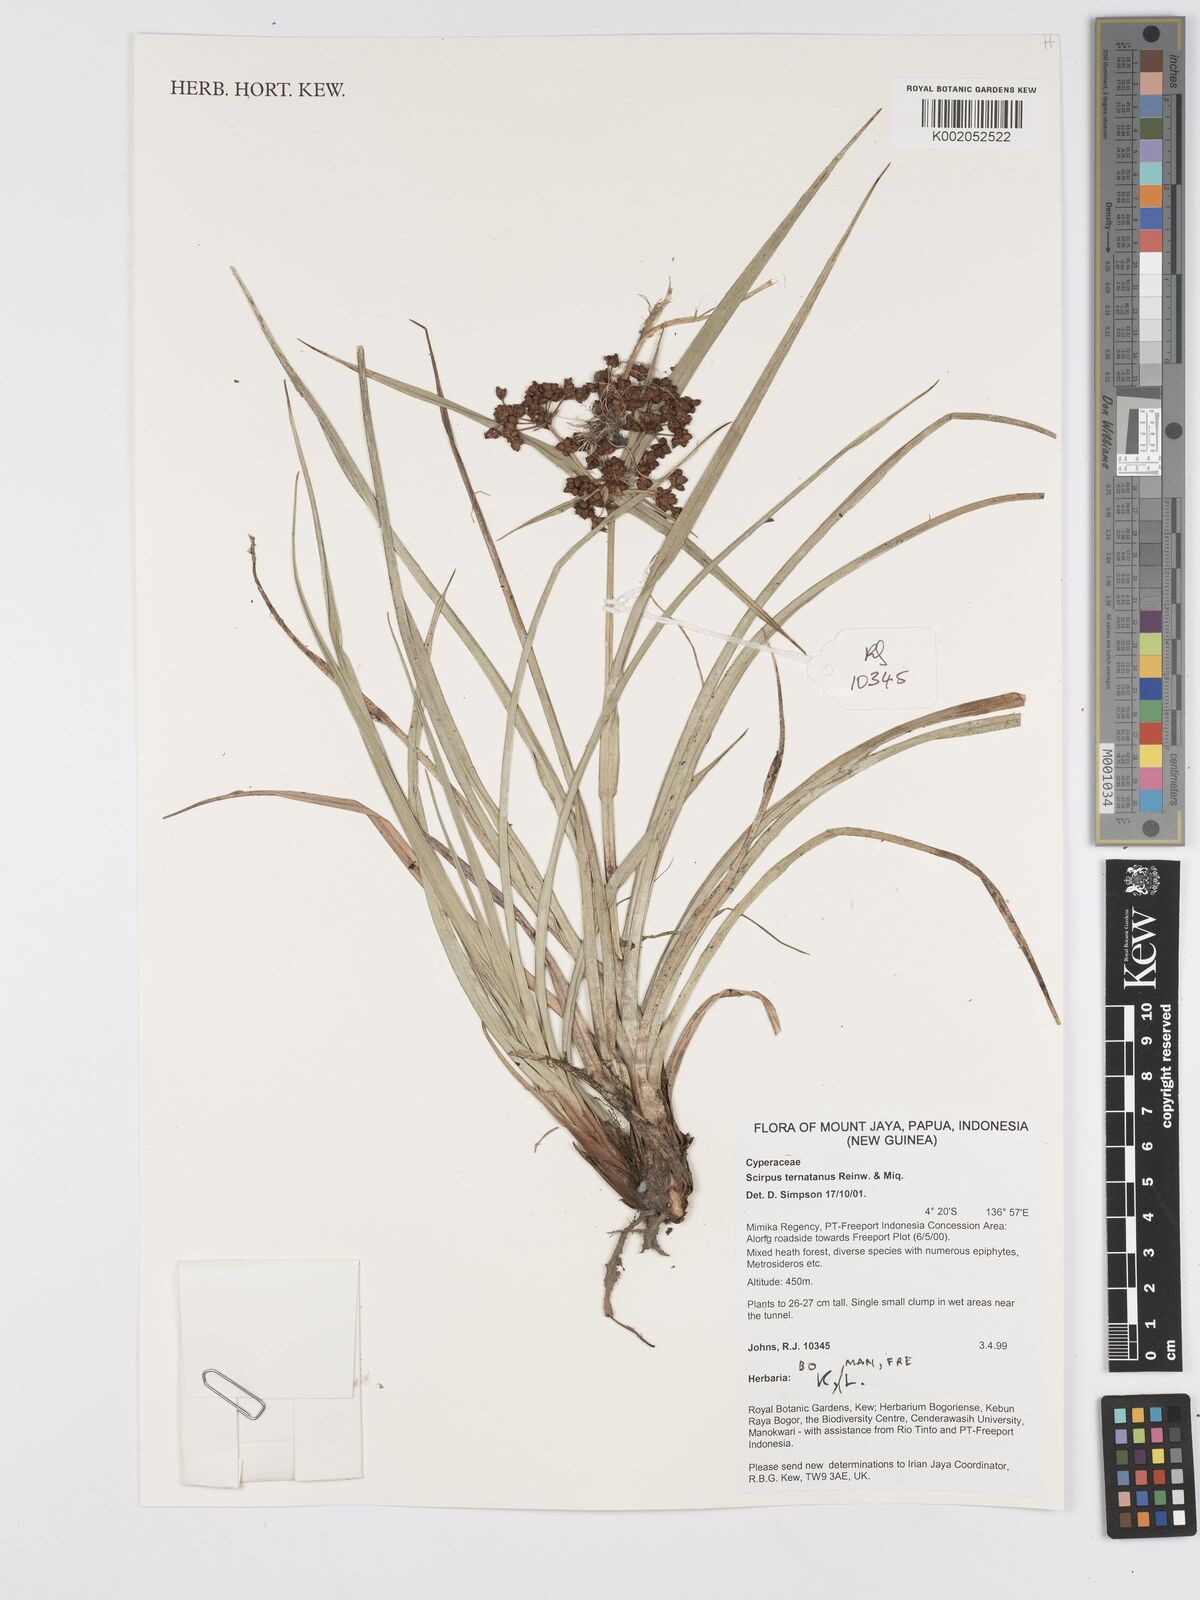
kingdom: Plantae
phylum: Tracheophyta
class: Liliopsida
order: Poales
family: Cyperaceae
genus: Scirpus
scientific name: Scirpus ternatanus
